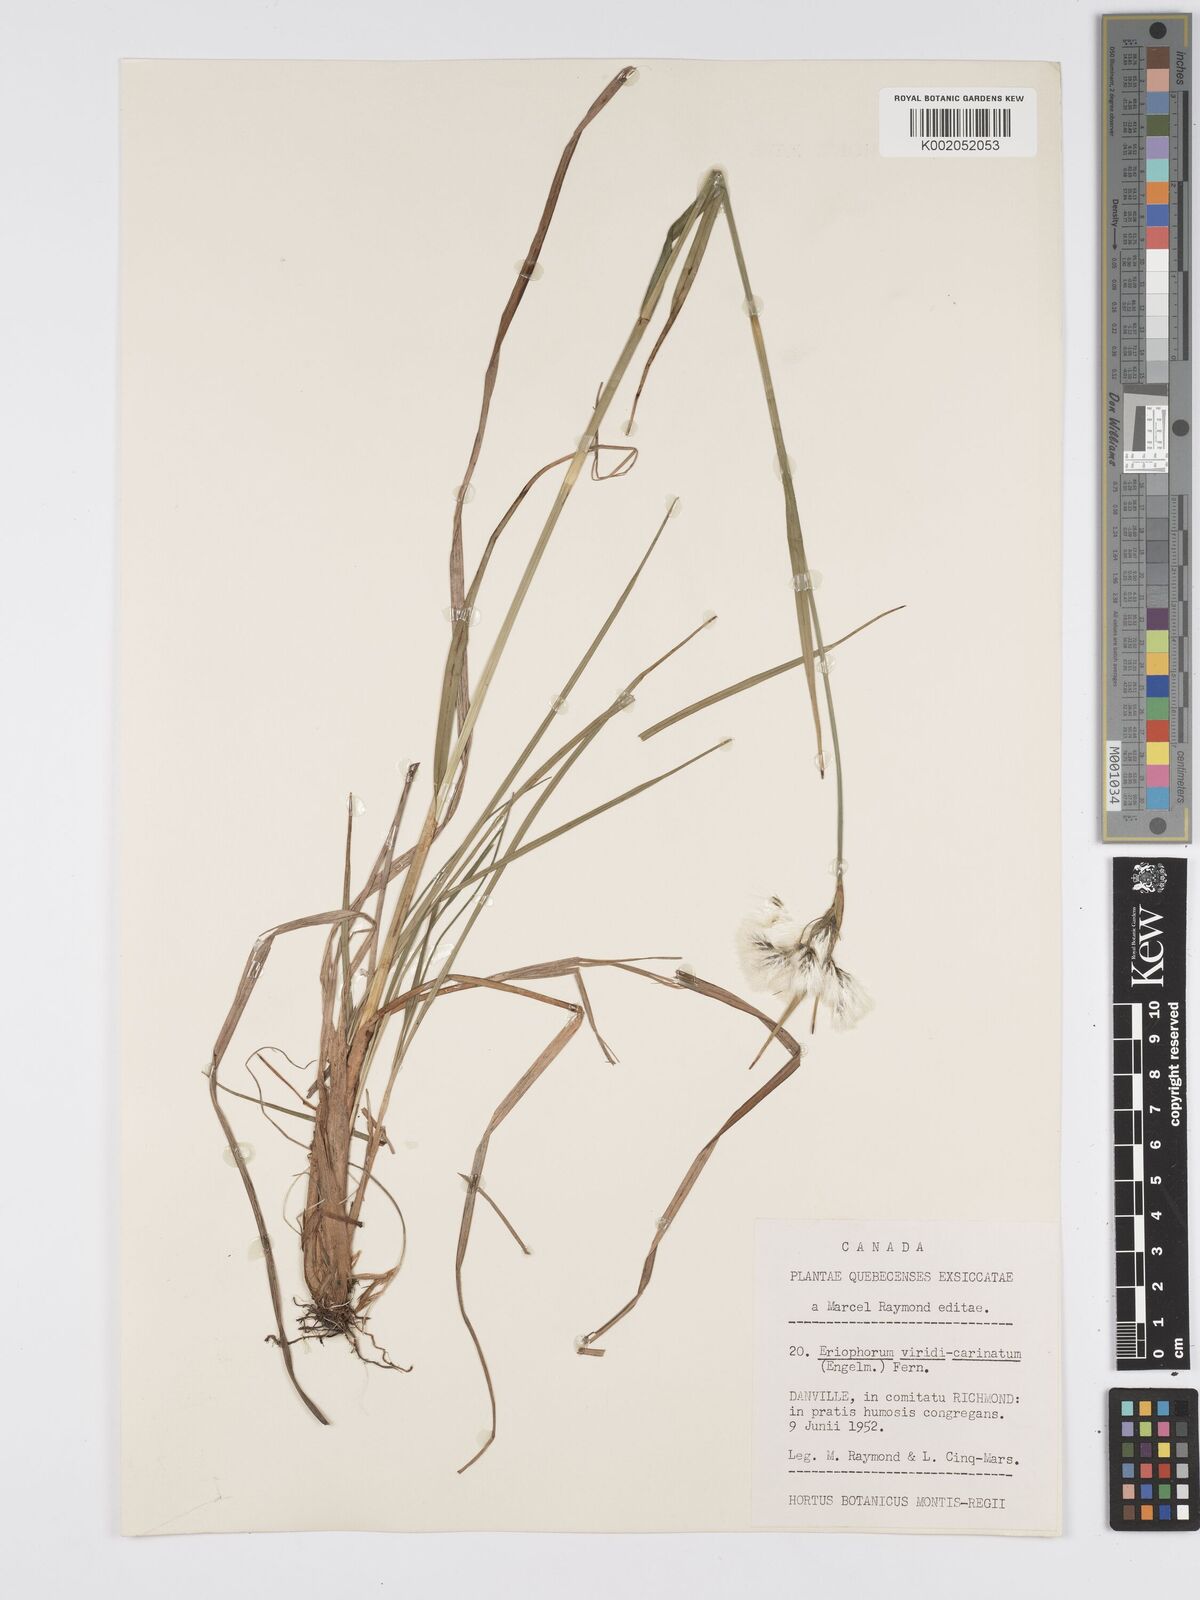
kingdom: Plantae
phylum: Tracheophyta
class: Liliopsida
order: Poales
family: Cyperaceae
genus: Eriophorum
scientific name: Eriophorum viridicarinatum
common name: Green-keeled cottongrass
